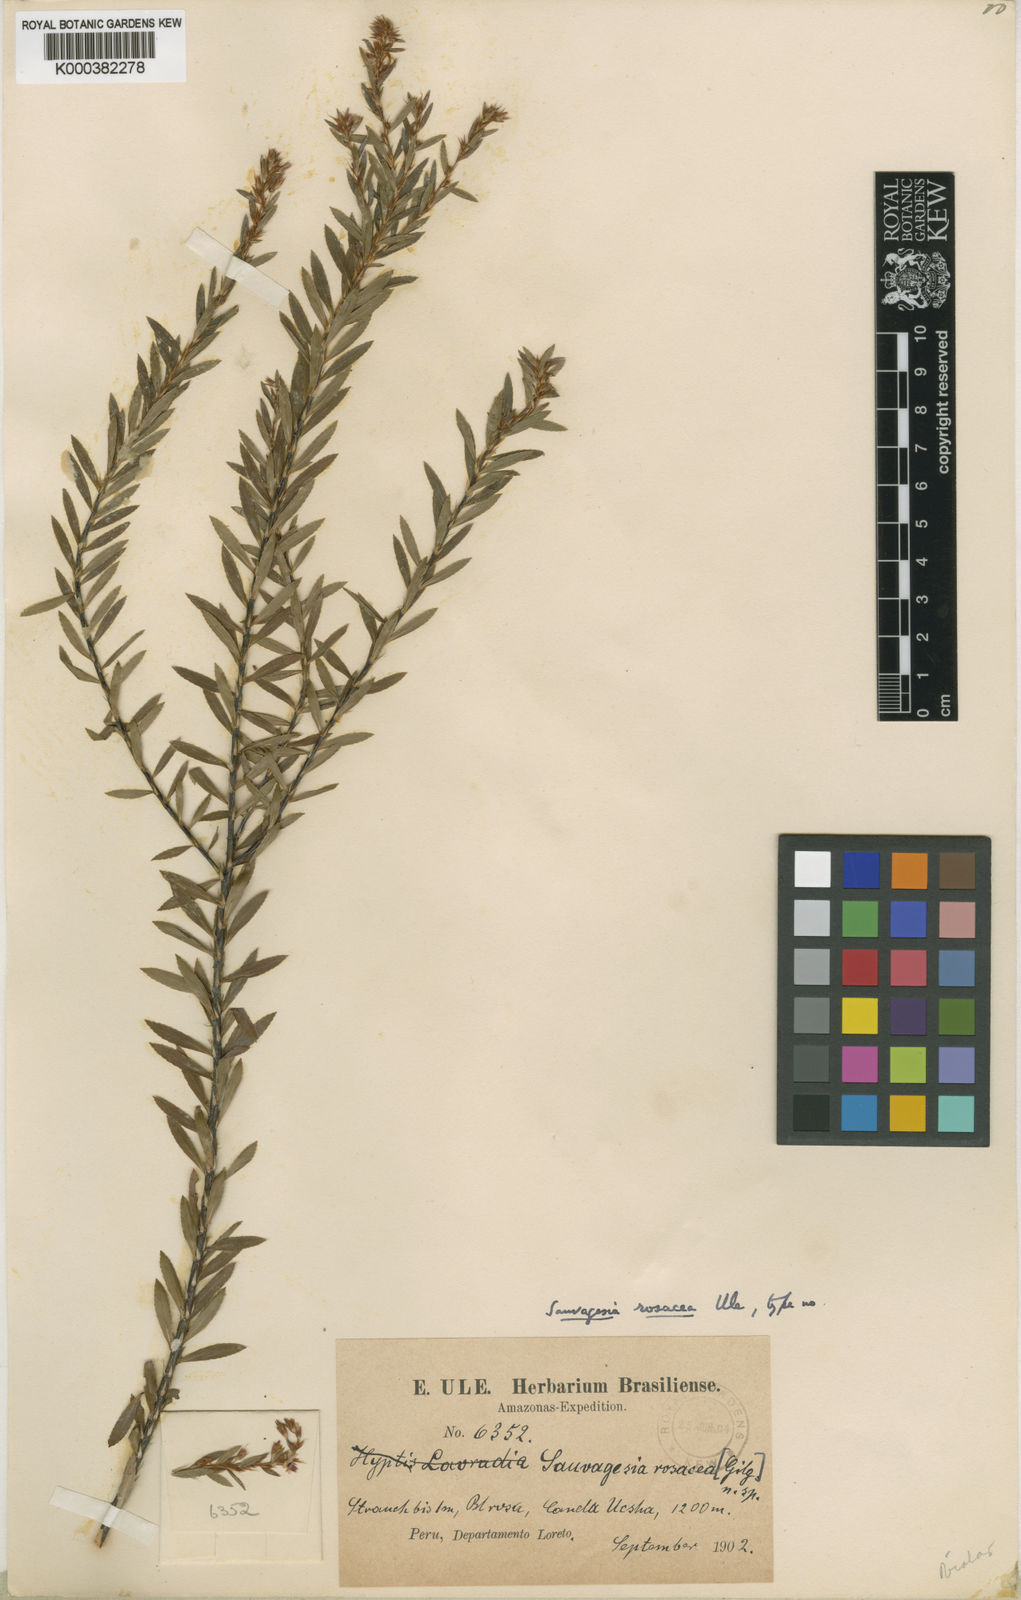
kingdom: Plantae
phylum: Tracheophyta
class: Magnoliopsida
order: Malpighiales
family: Ochnaceae
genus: Sauvagesia
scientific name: Sauvagesia fruticosa
